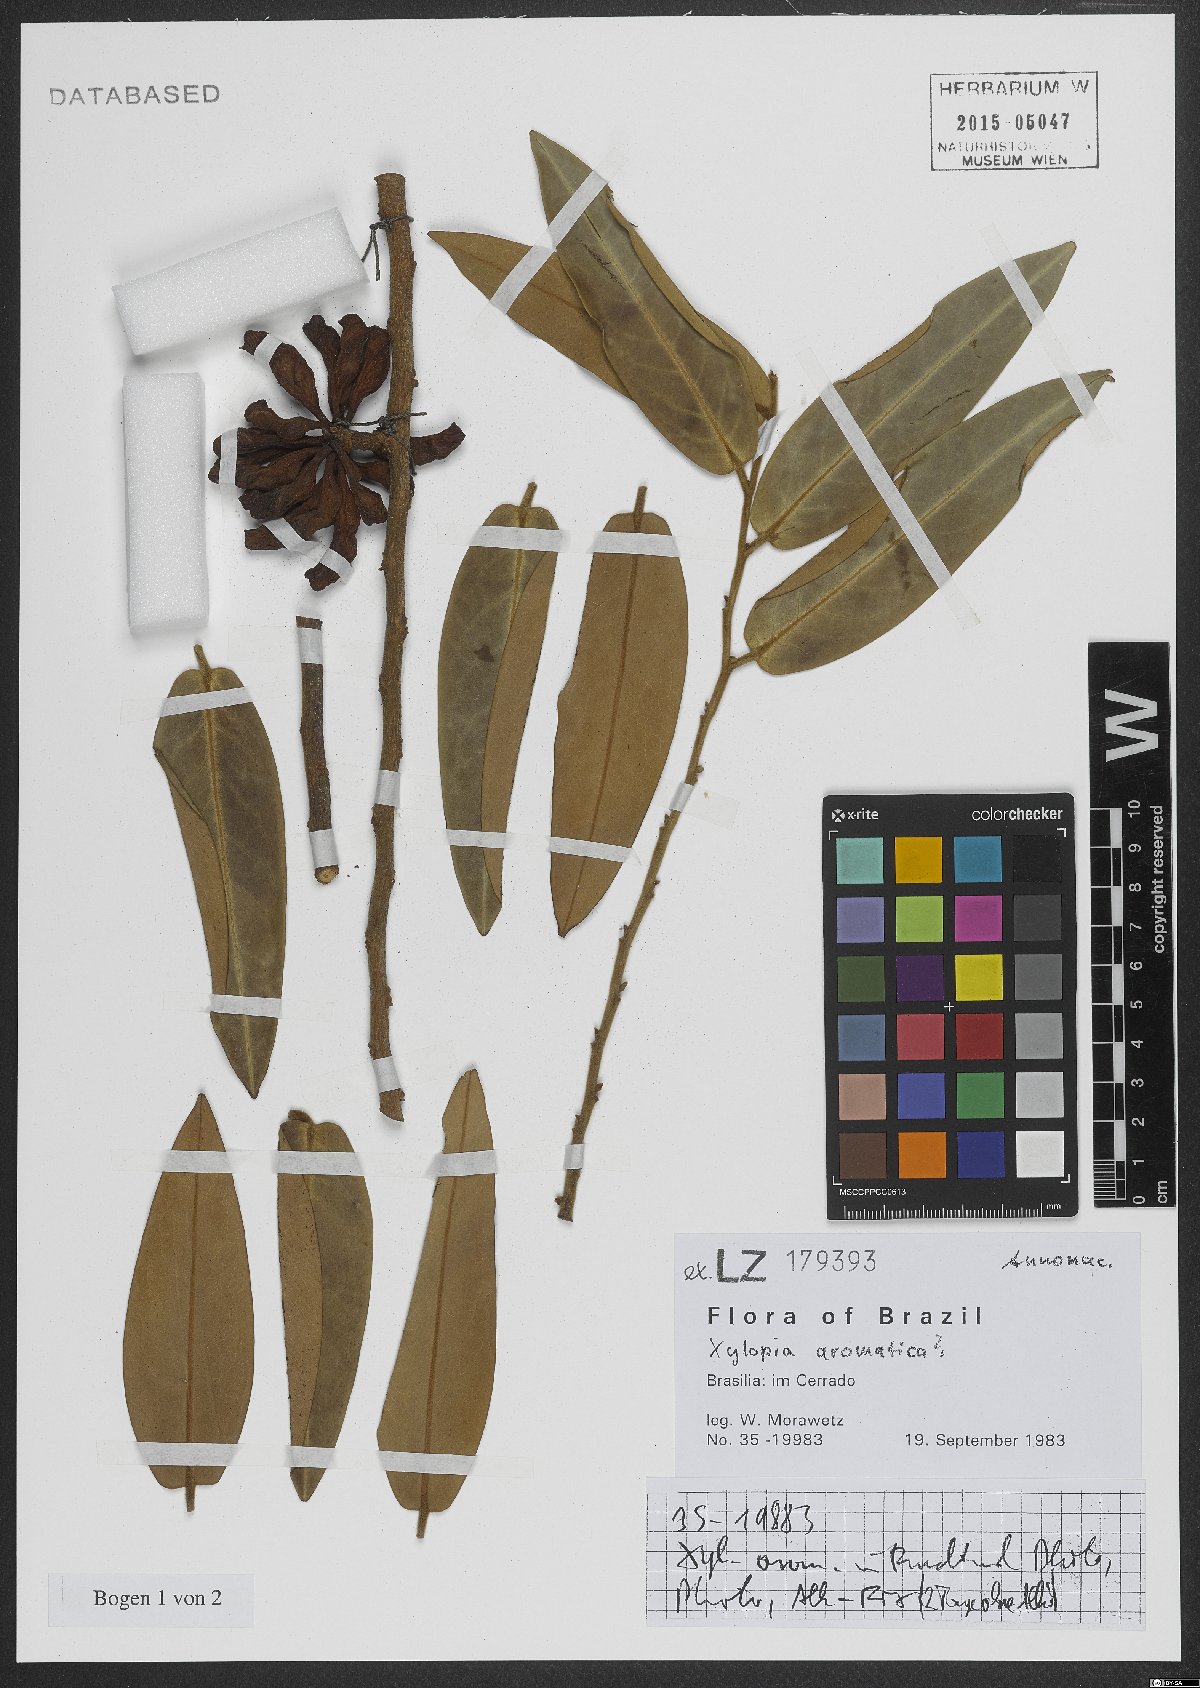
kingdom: Plantae
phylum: Tracheophyta
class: Magnoliopsida
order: Magnoliales
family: Annonaceae
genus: Xylopia
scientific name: Xylopia aromatica
